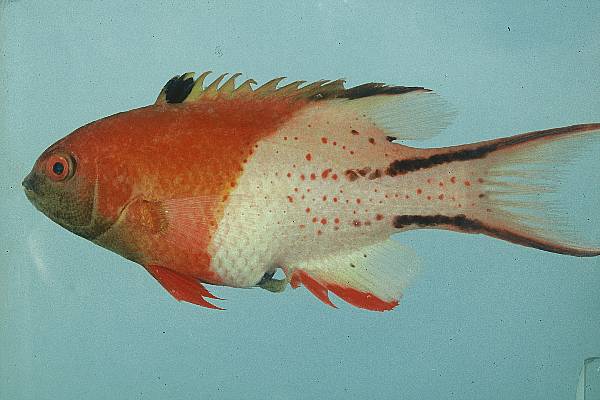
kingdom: Animalia
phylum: Chordata
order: Perciformes
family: Labridae
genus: Bodianus
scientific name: Bodianus anthioides
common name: Lyretail hogfish
